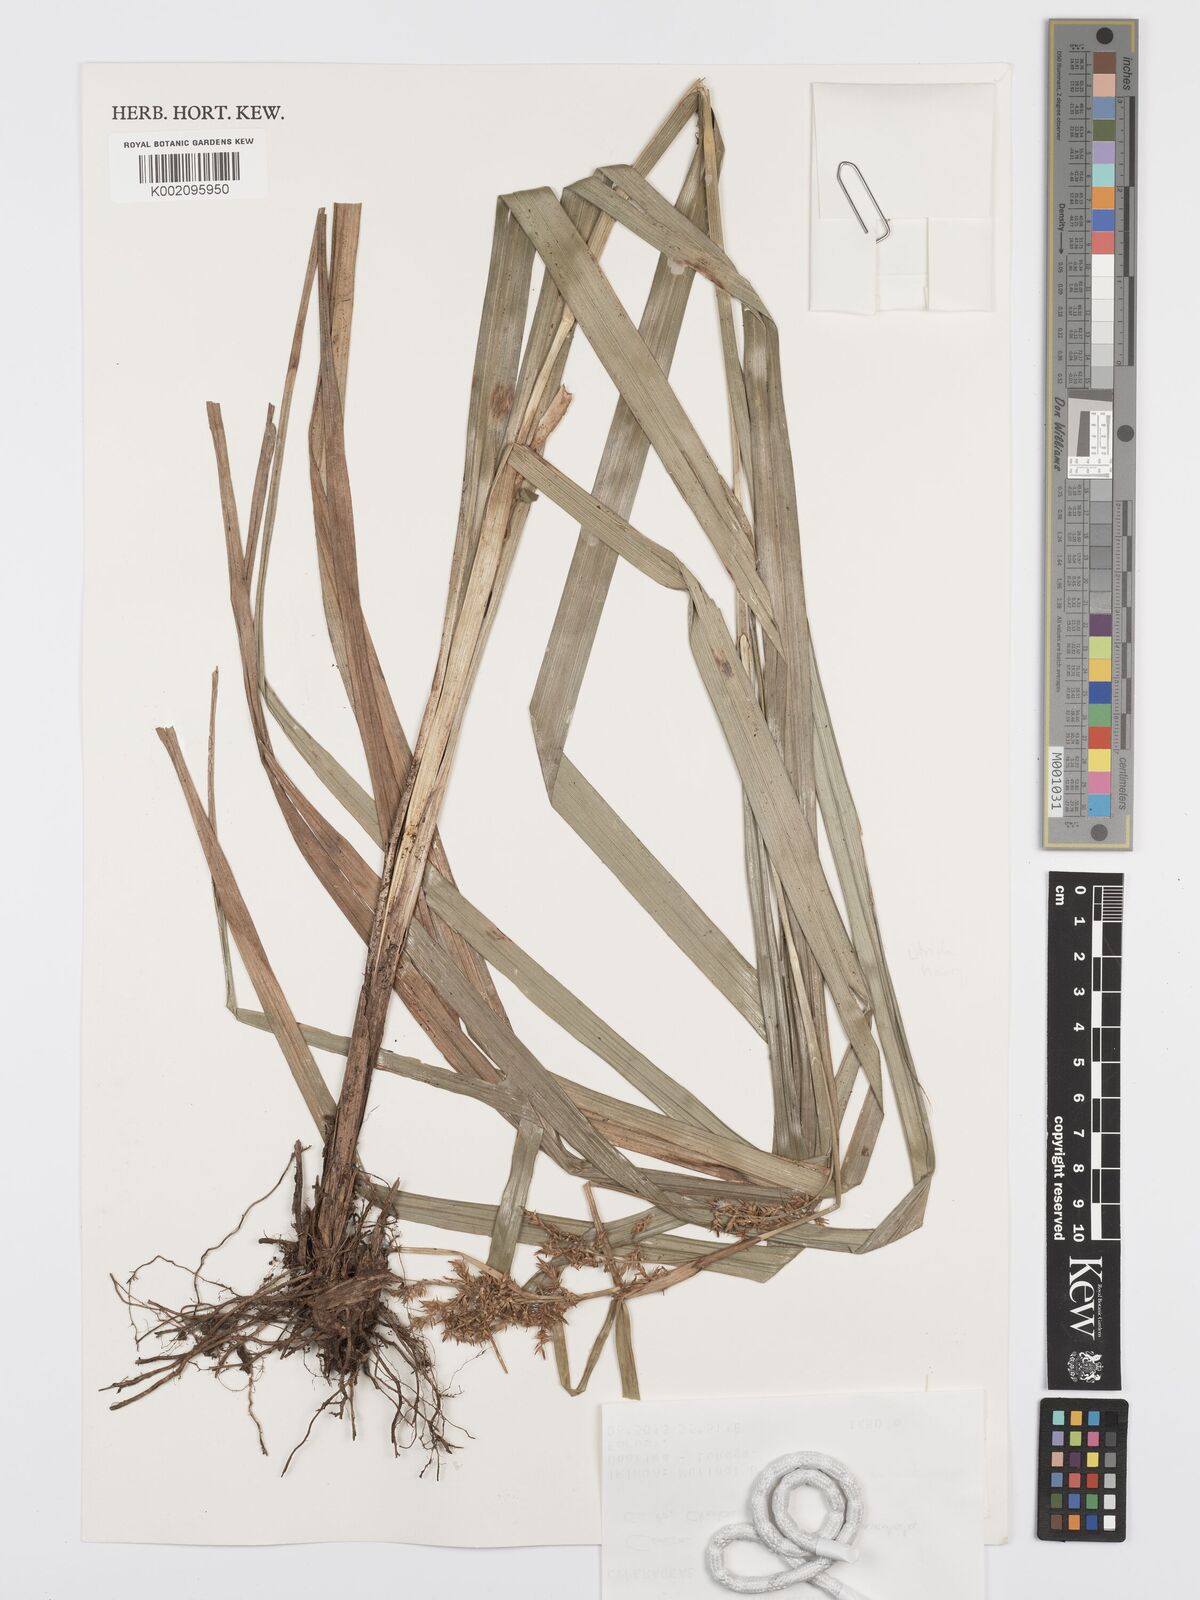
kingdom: Plantae
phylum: Tracheophyta
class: Liliopsida
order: Poales
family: Cyperaceae
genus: Carex
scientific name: Carex spicatopaniculata
